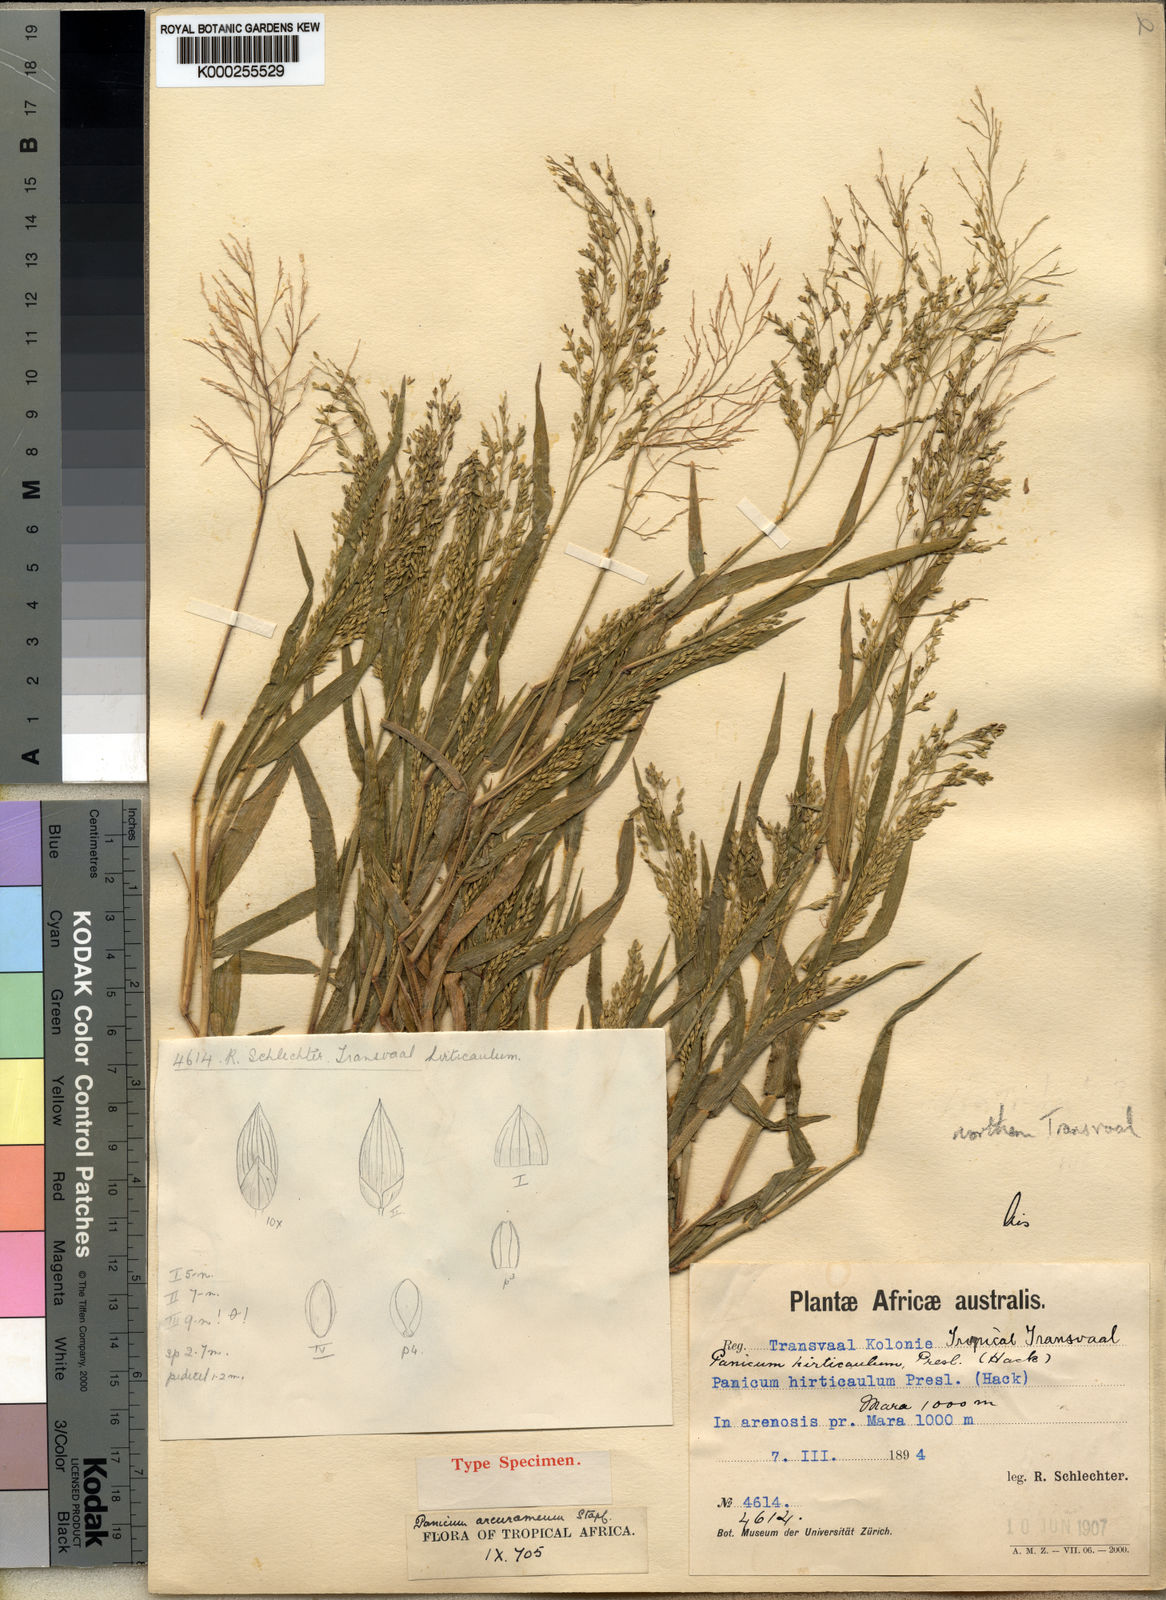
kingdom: Plantae
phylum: Tracheophyta
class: Liliopsida
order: Poales
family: Poaceae
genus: Panicum
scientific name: Panicum arcurameum
